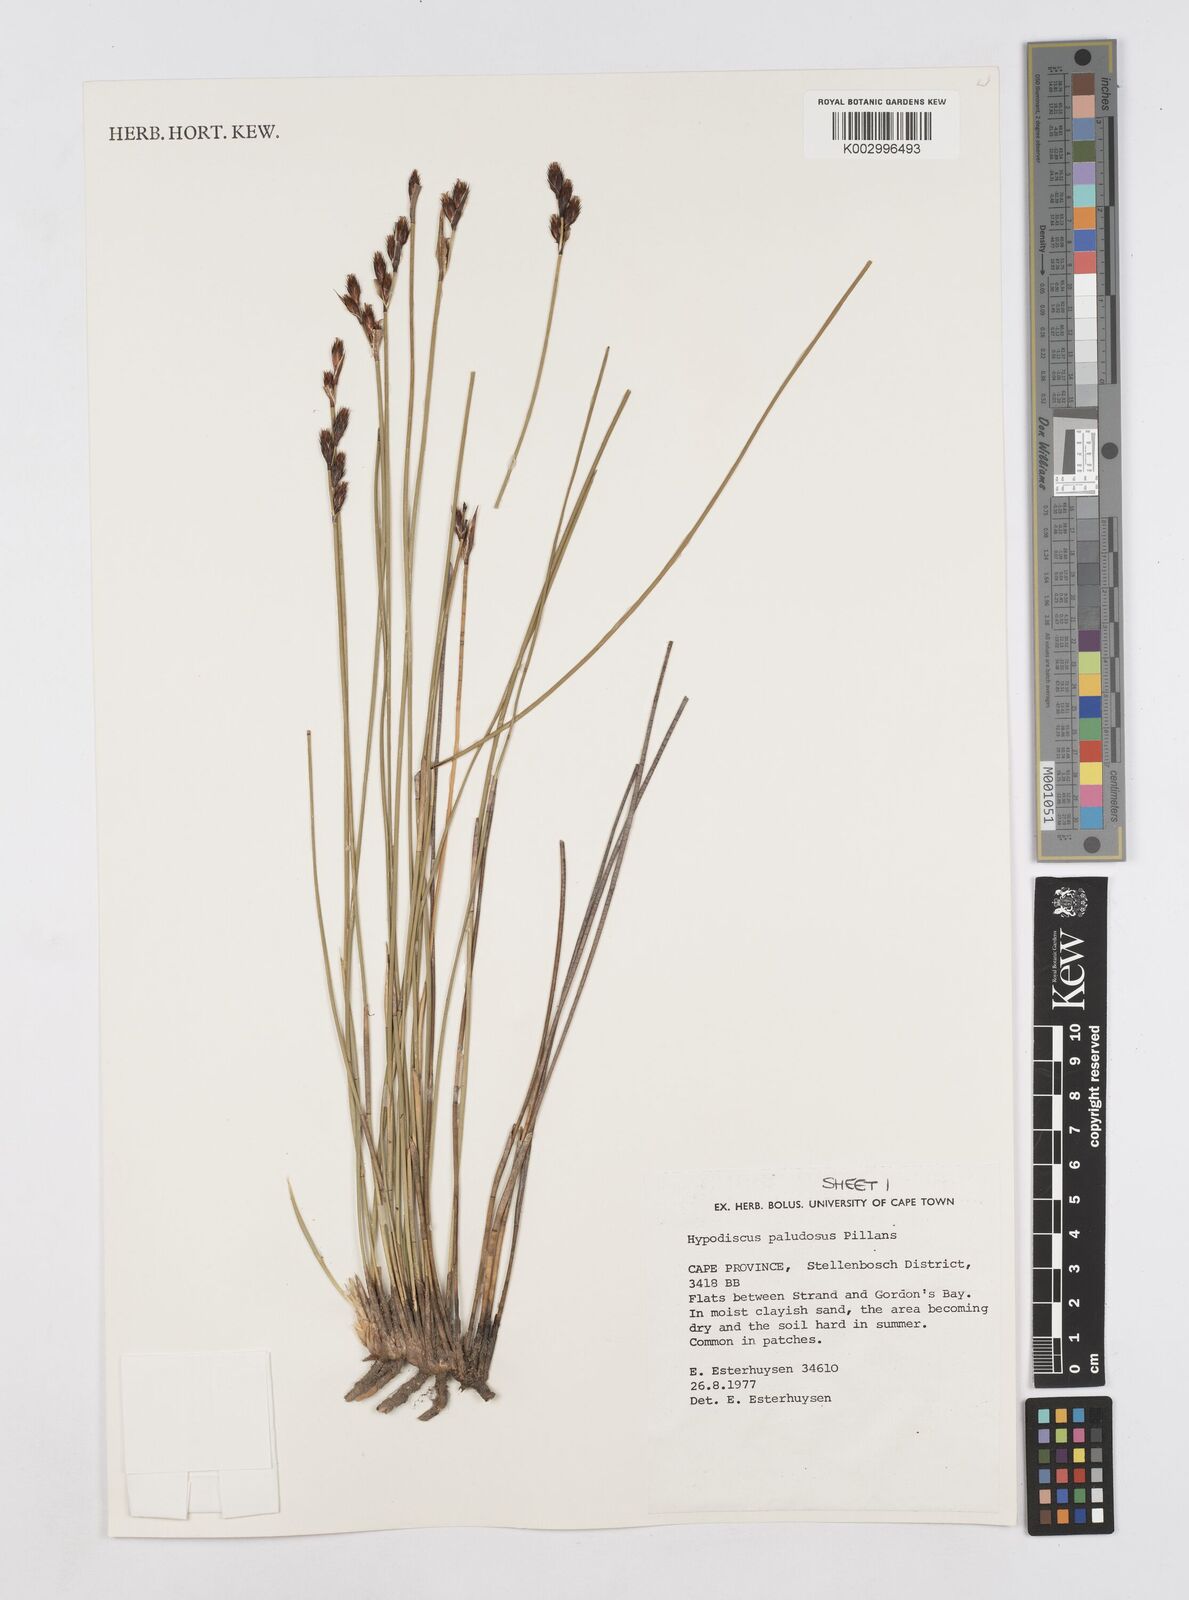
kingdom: Plantae
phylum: Tracheophyta
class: Liliopsida
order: Poales
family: Restionaceae
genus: Hypodiscus
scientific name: Hypodiscus rugosus
